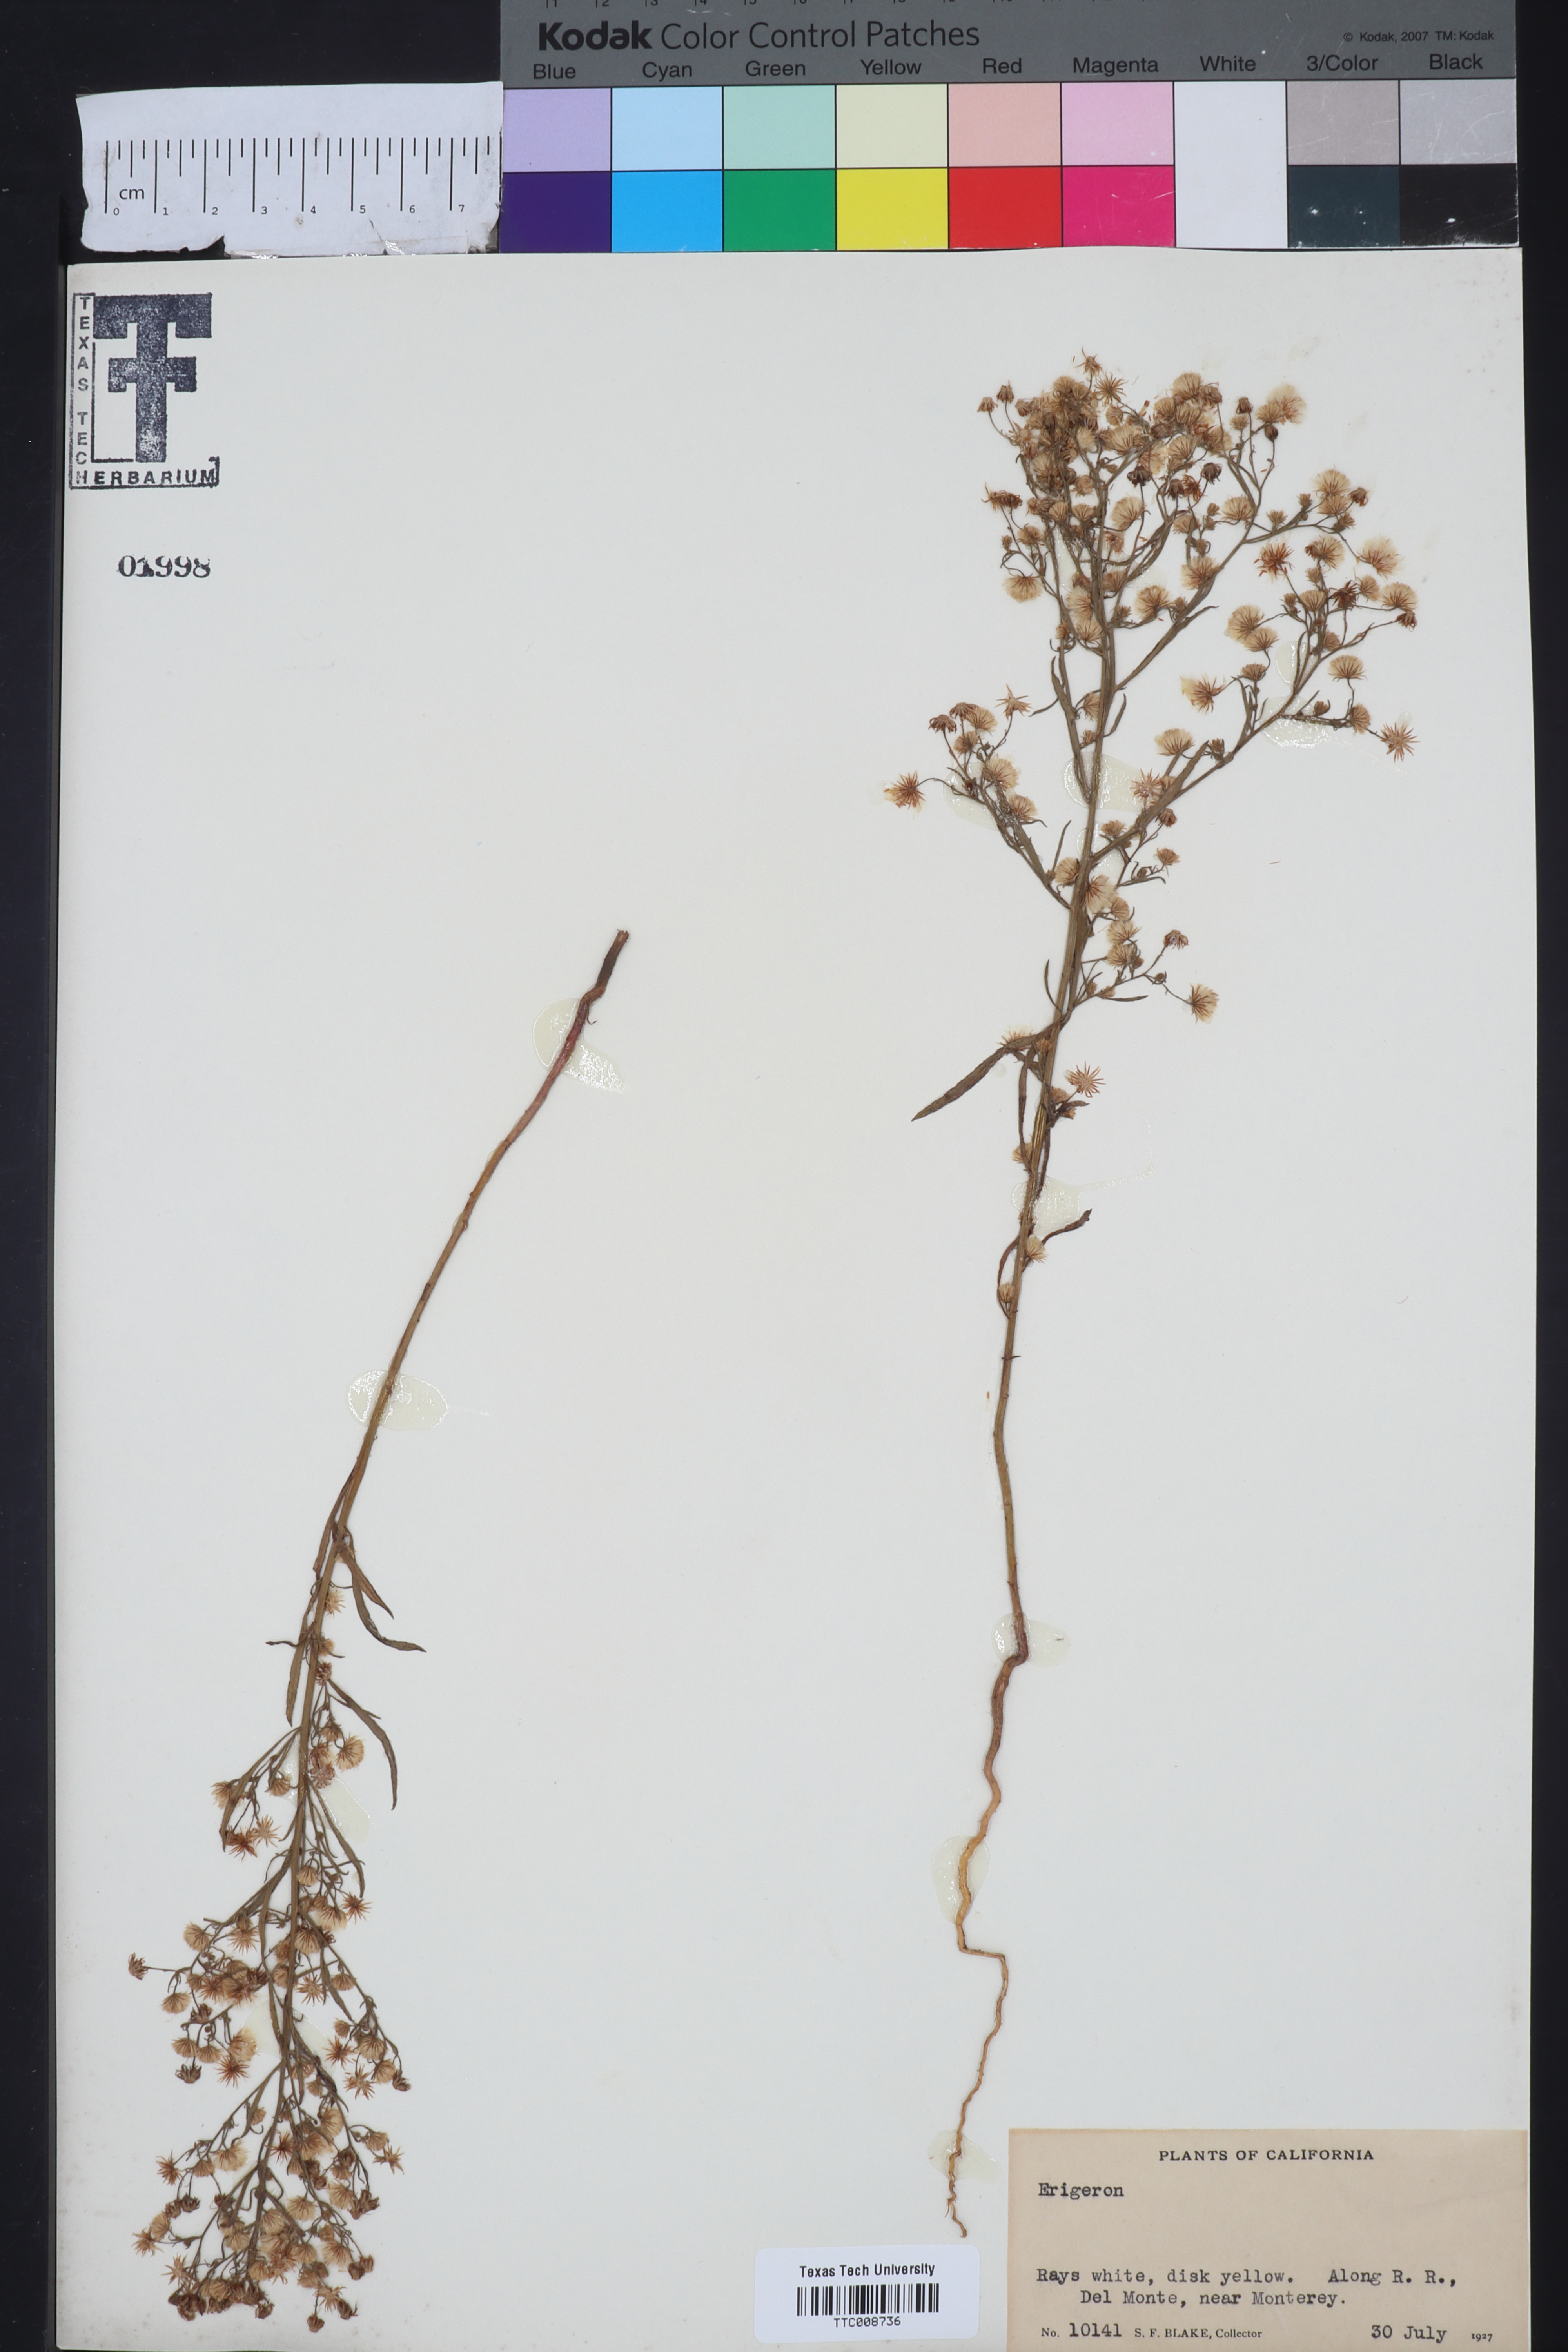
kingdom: Plantae
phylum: Tracheophyta
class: Magnoliopsida
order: Asterales
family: Asteraceae
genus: Erigeron
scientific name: Erigeron
